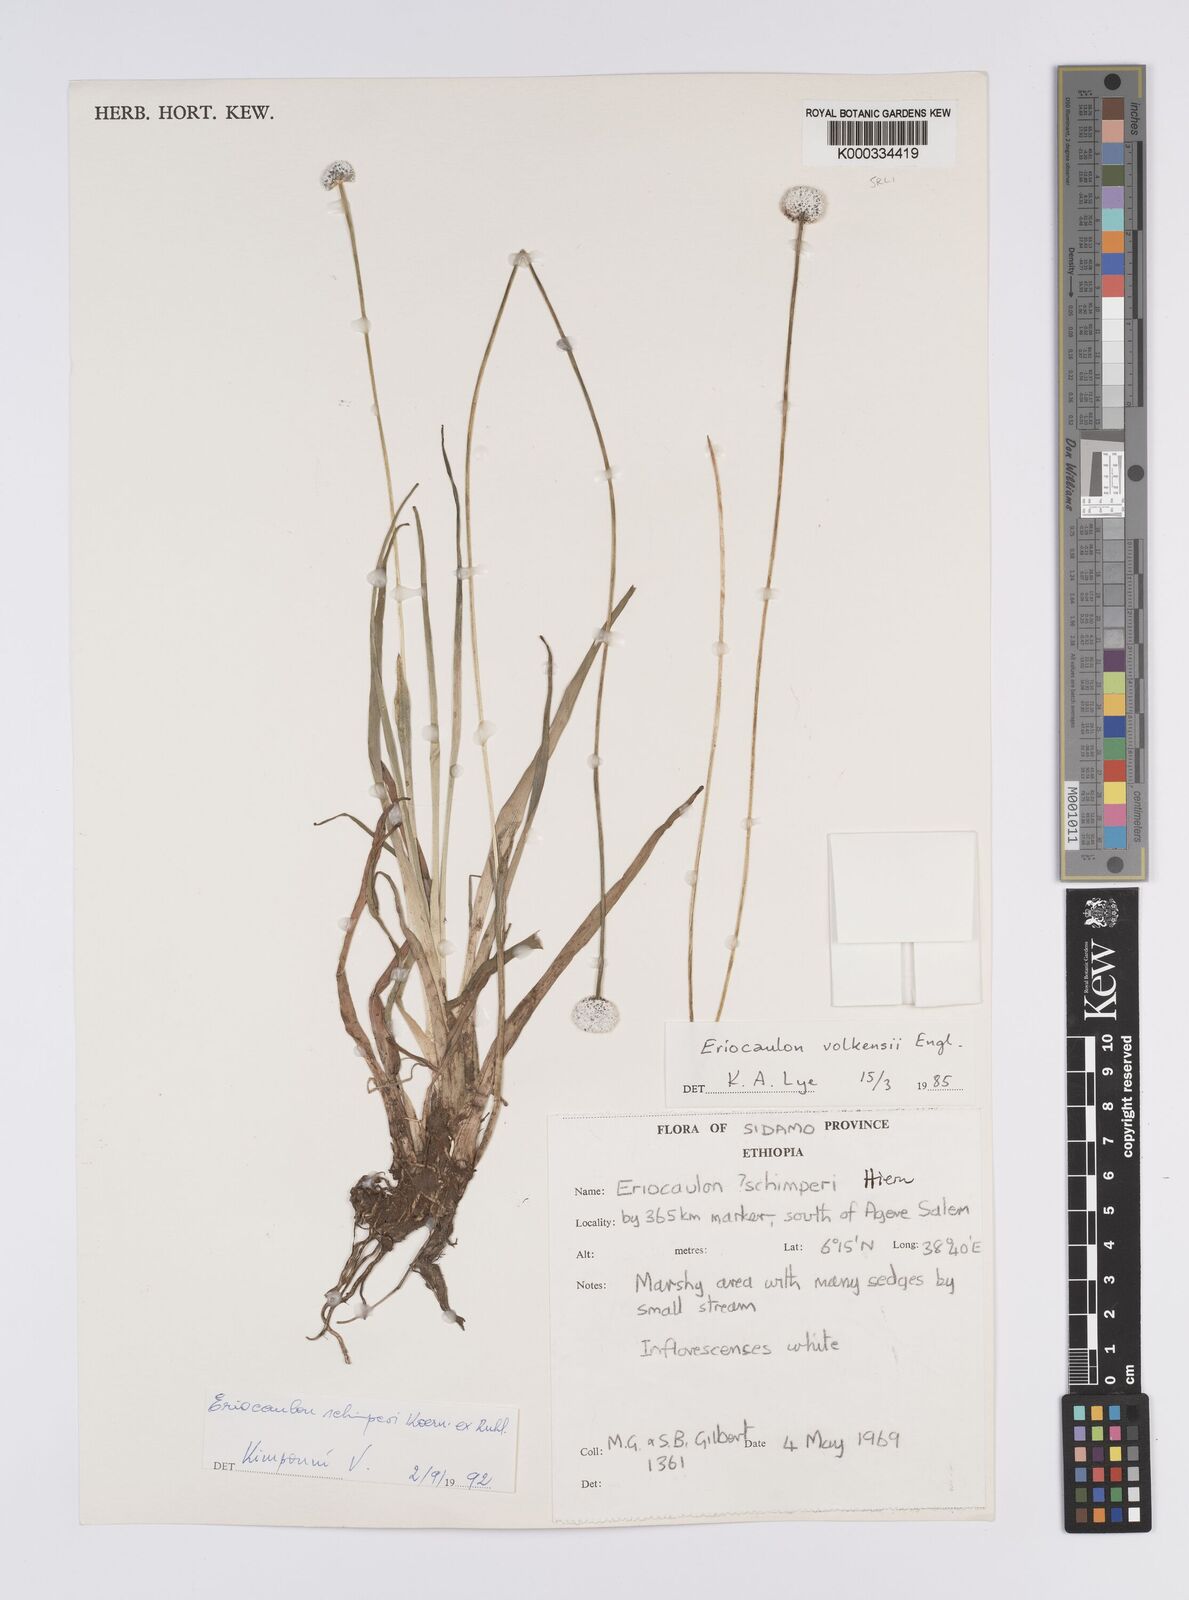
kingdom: Plantae
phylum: Tracheophyta
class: Liliopsida
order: Poales
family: Eriocaulaceae
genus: Eriocaulon
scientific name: Eriocaulon
